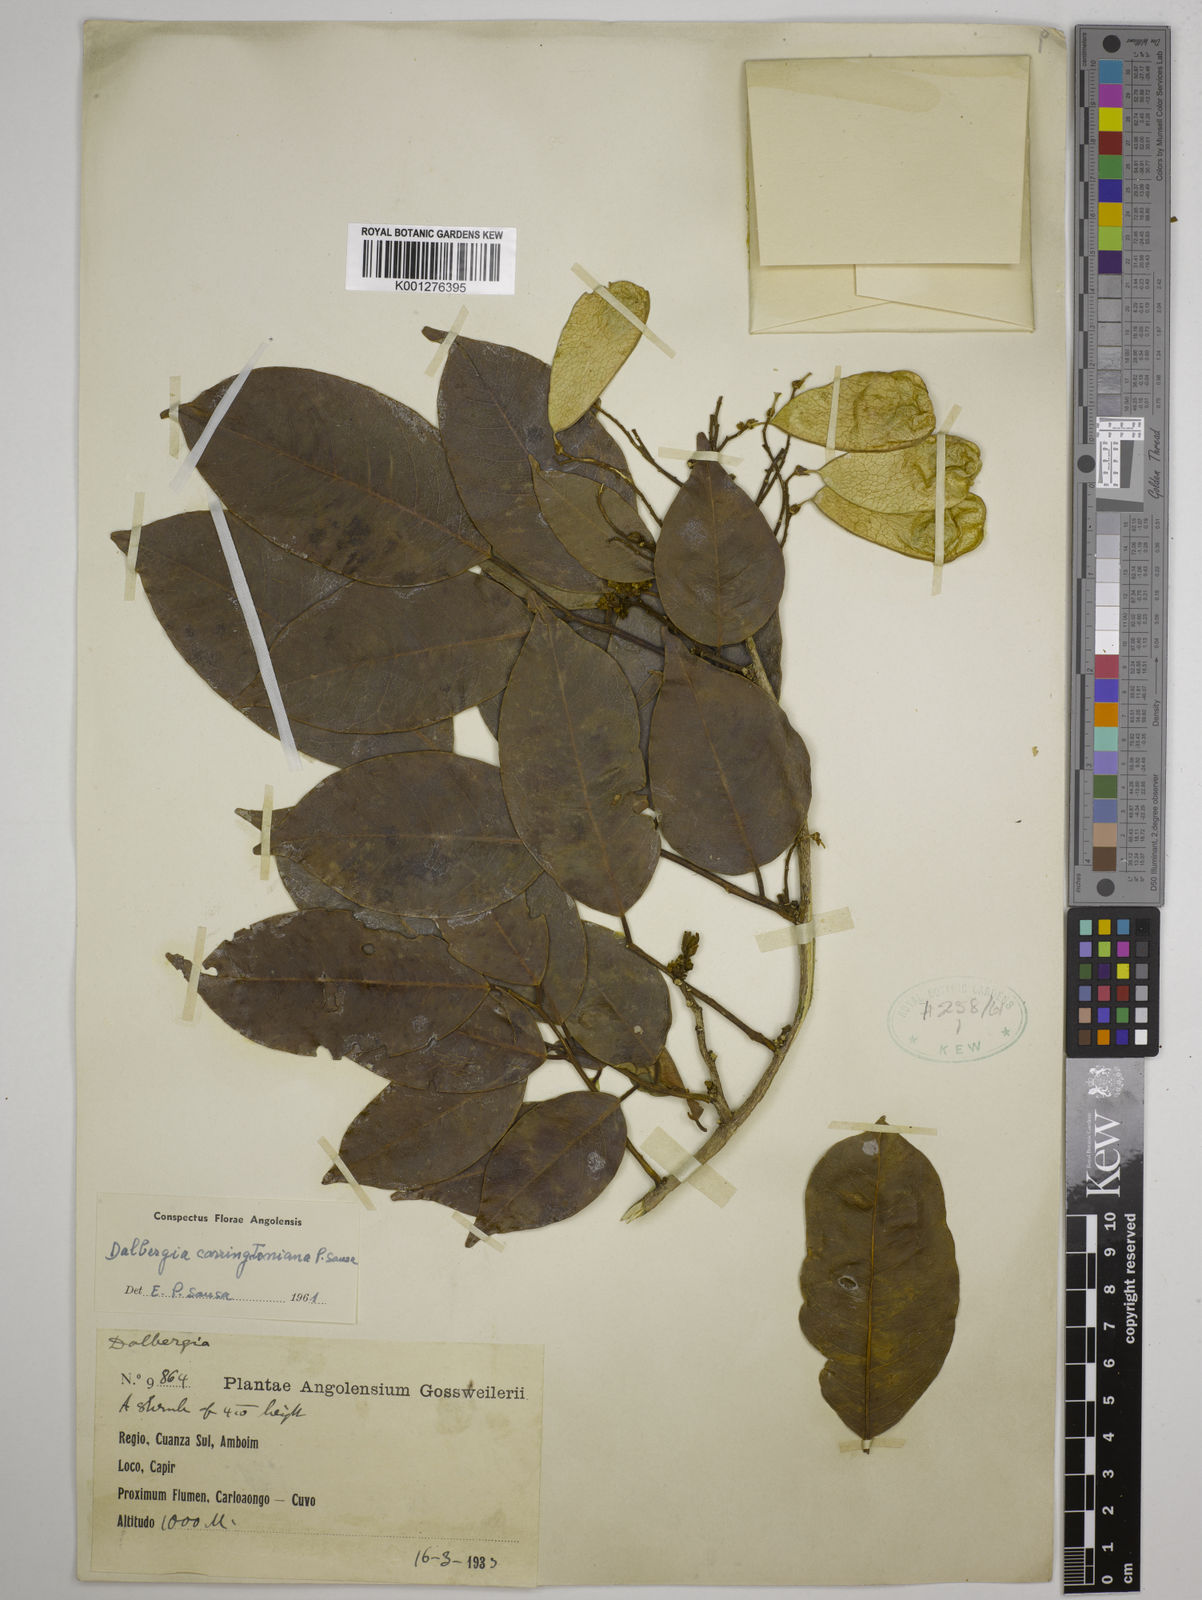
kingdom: Plantae
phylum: Tracheophyta
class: Magnoliopsida
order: Fabales
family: Fabaceae
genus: Dalbergia
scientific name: Dalbergia
